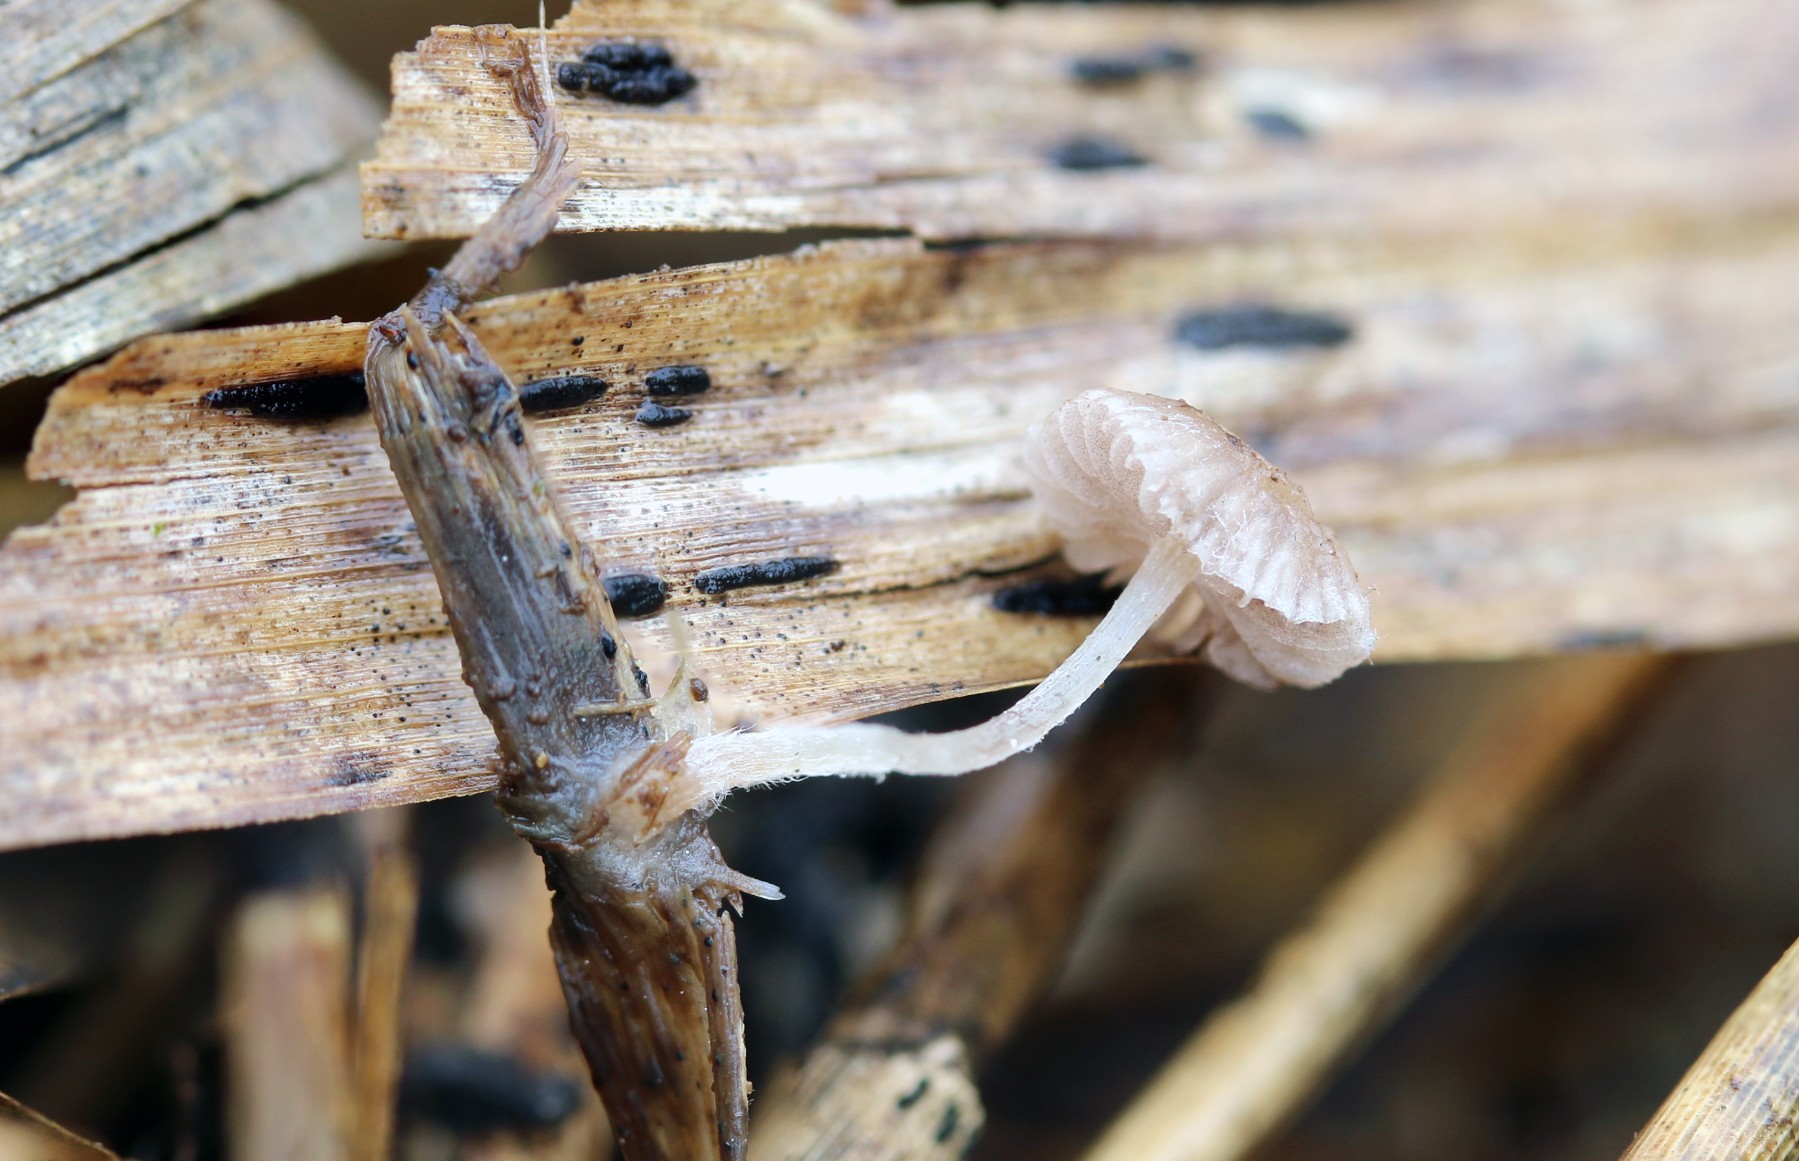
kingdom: Fungi
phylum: Basidiomycota
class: Agaricomycetes
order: Agaricales
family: Strophariaceae
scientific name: Strophariaceae
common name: bredbladfamilien
